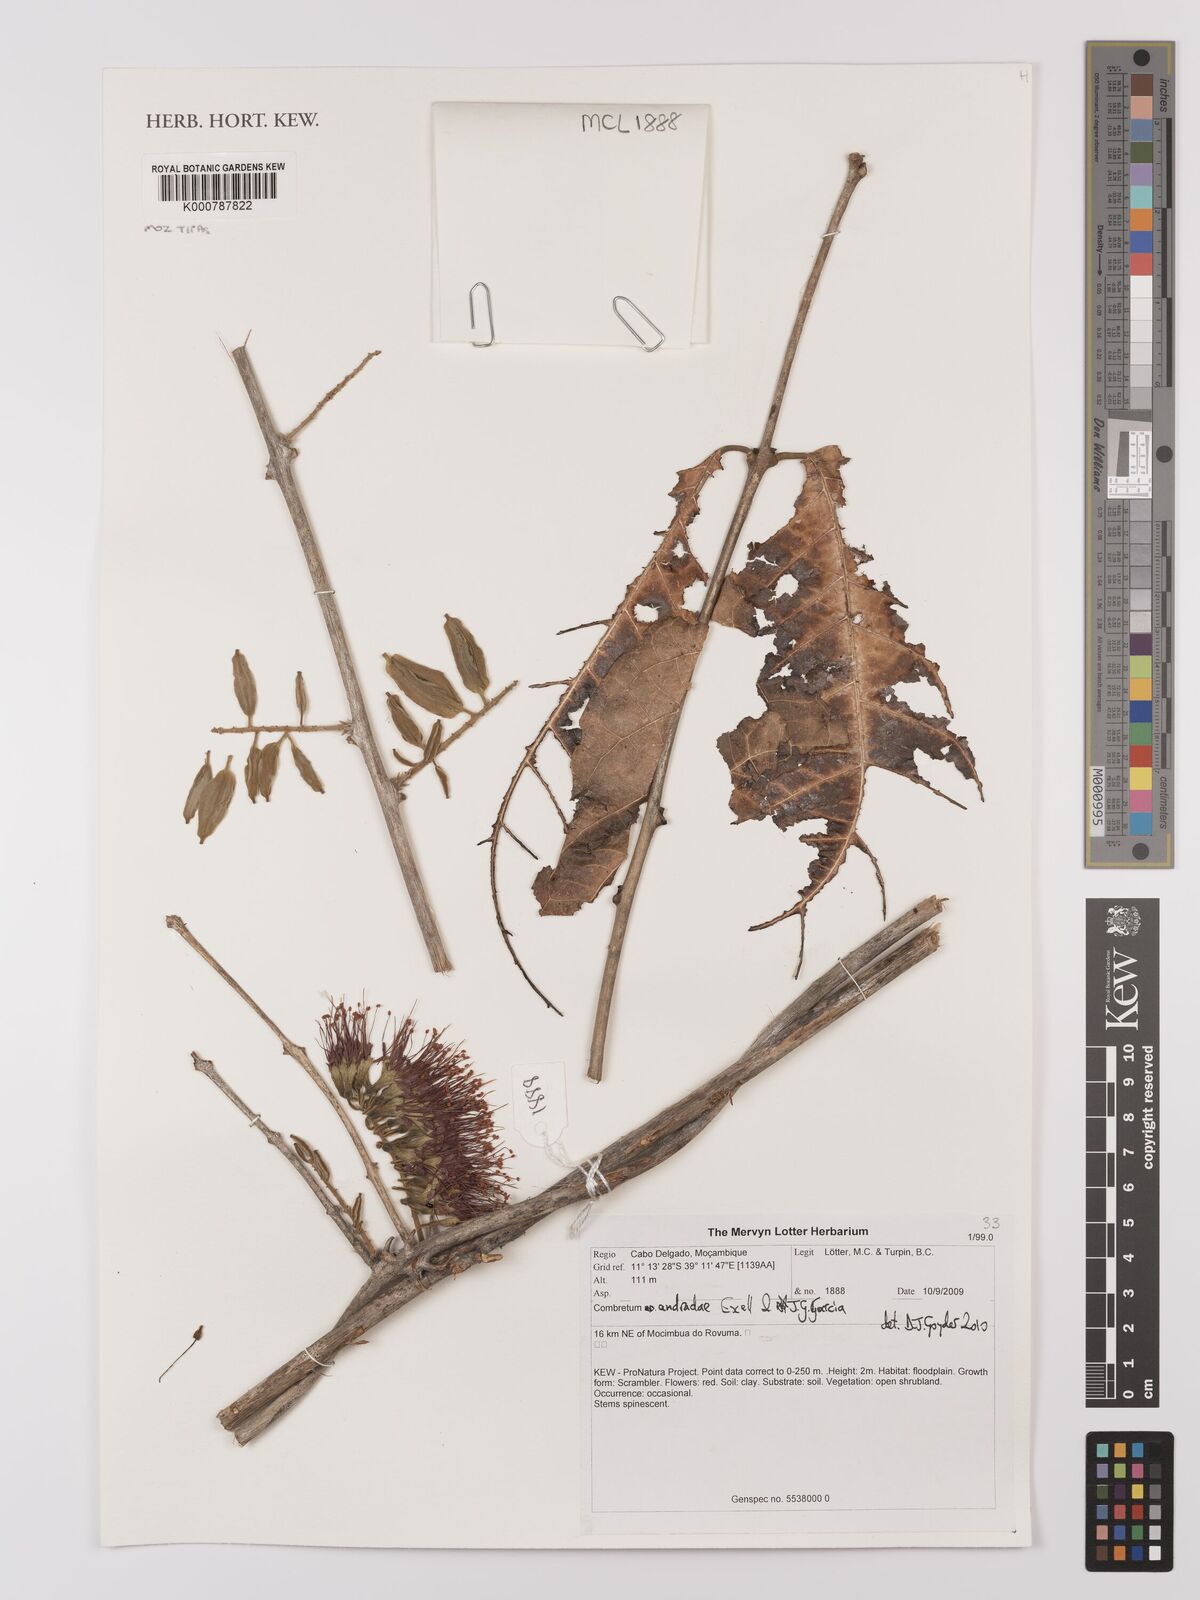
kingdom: Plantae
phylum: Tracheophyta
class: Magnoliopsida
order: Myrtales
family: Combretaceae
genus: Combretum
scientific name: Combretum andradae
